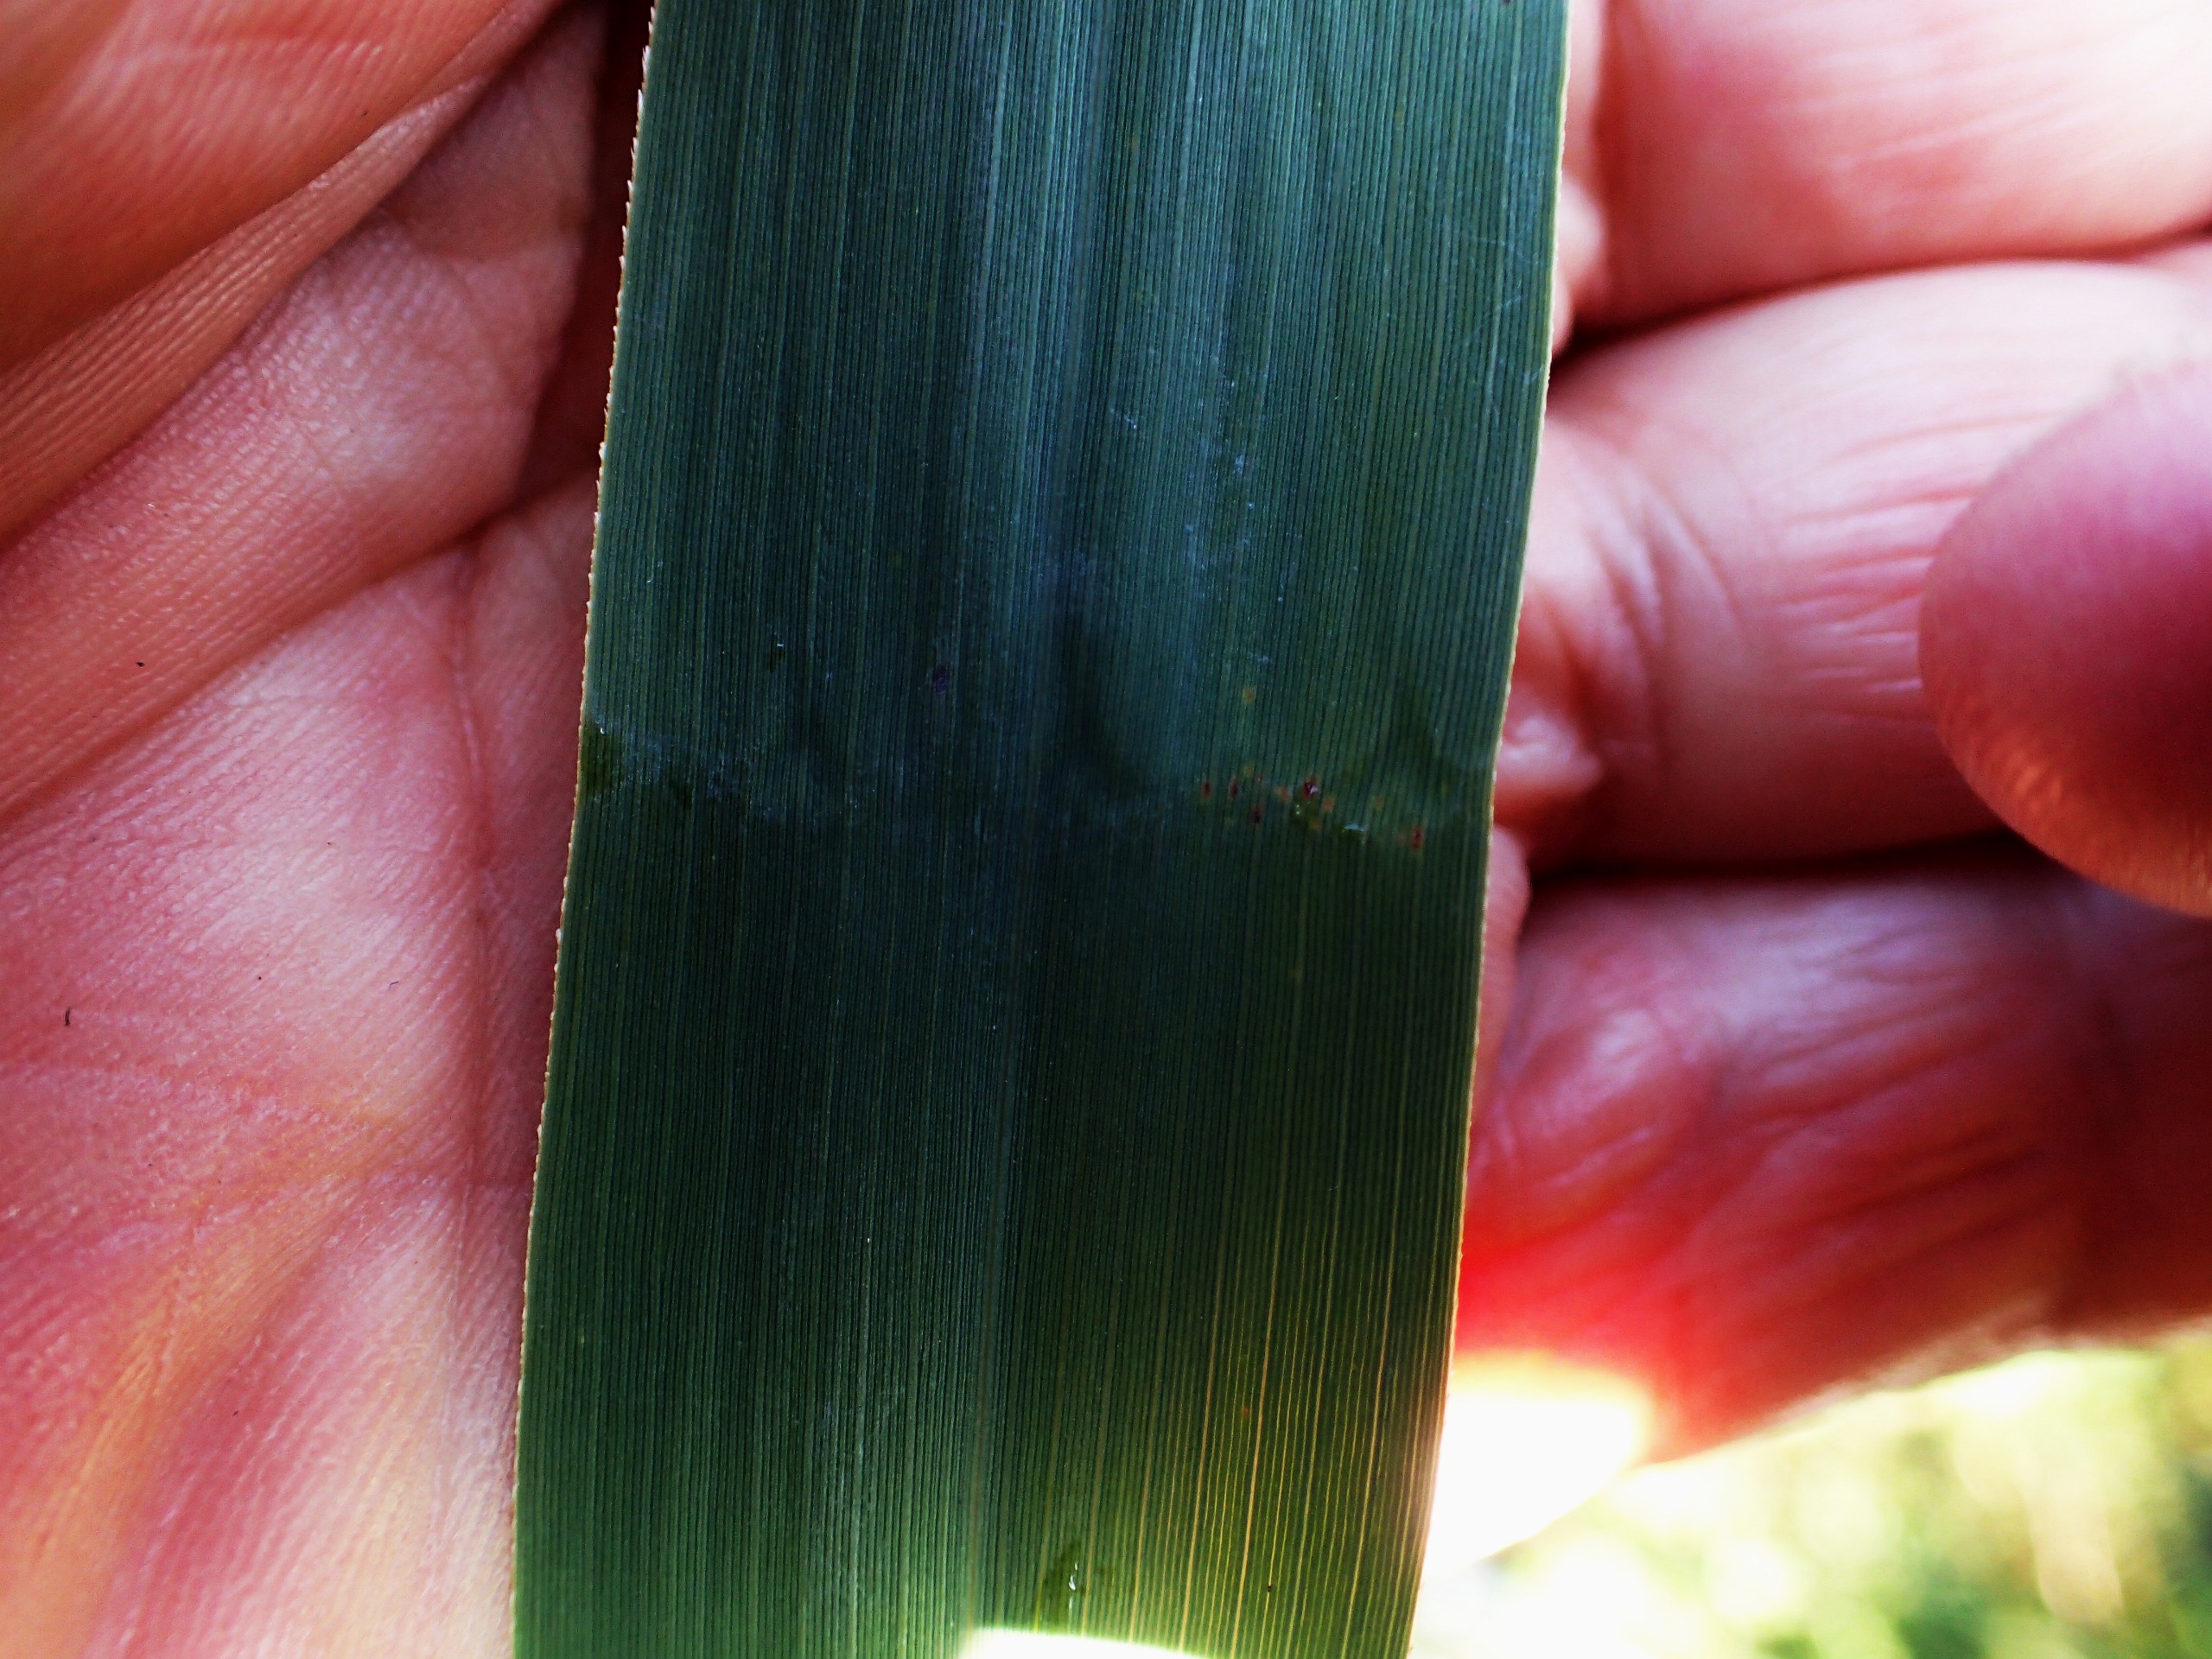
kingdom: Plantae
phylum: Tracheophyta
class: Liliopsida
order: Poales
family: Poaceae
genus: Phragmites
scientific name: Phragmites australis
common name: Tagrør
